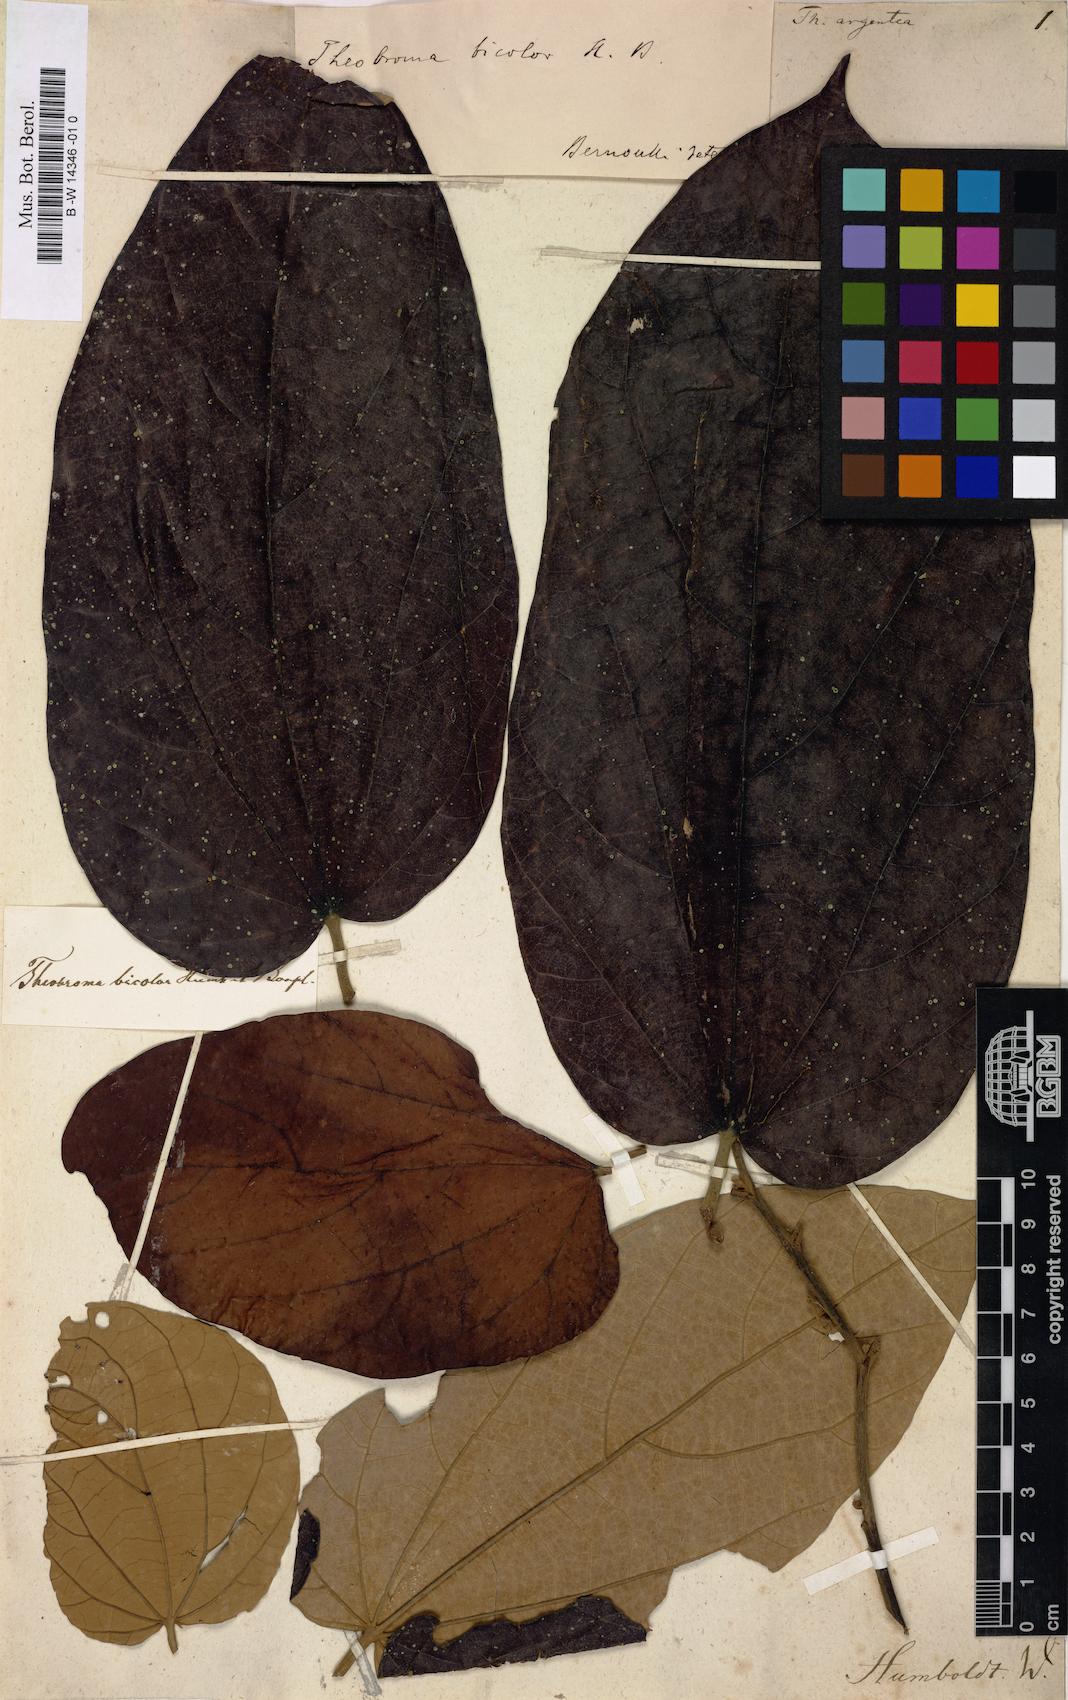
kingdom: Plantae
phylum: Tracheophyta
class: Magnoliopsida
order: Malvales
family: Malvaceae
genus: Theobroma
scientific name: Theobroma
